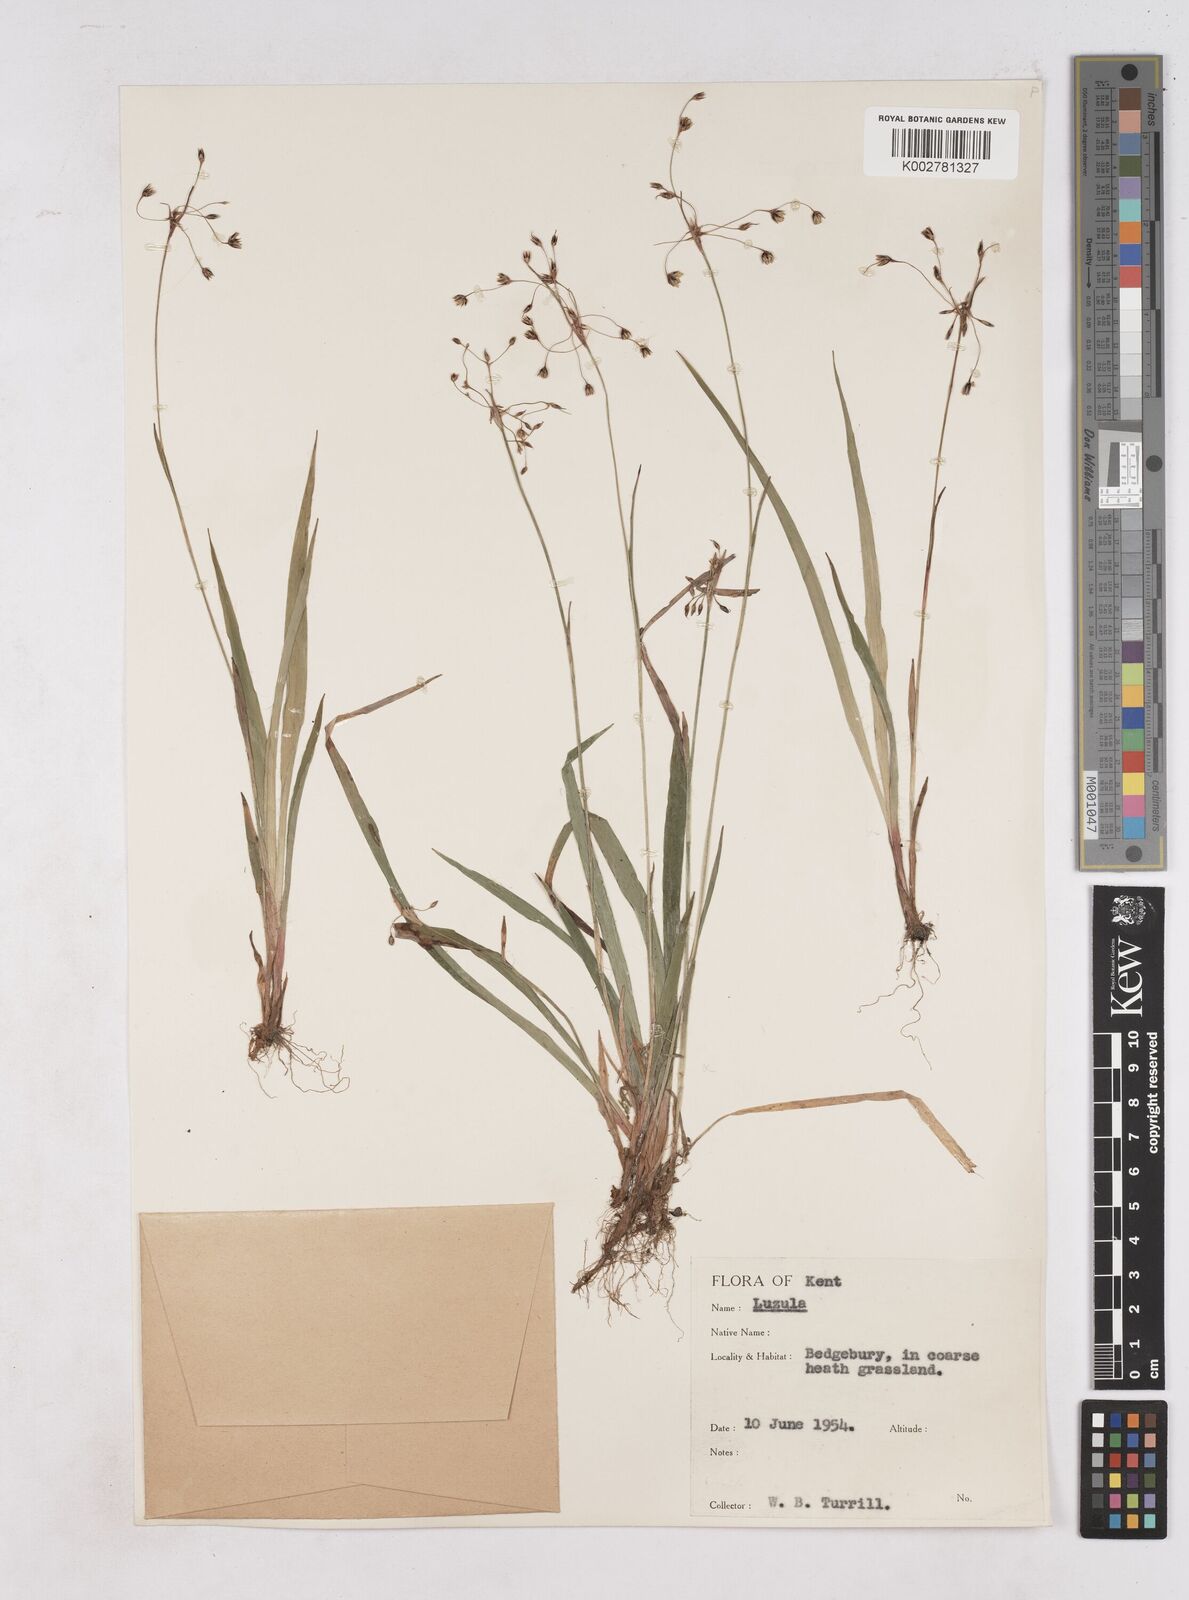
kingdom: Plantae
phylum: Tracheophyta
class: Liliopsida
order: Poales
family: Juncaceae
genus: Luzula
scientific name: Luzula pilosa
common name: Hairy wood-rush
